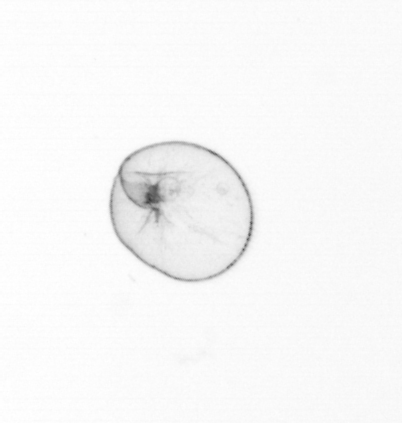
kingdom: Chromista
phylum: Myzozoa
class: Dinophyceae
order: Noctilucales
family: Noctilucaceae
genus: Noctiluca
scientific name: Noctiluca scintillans
